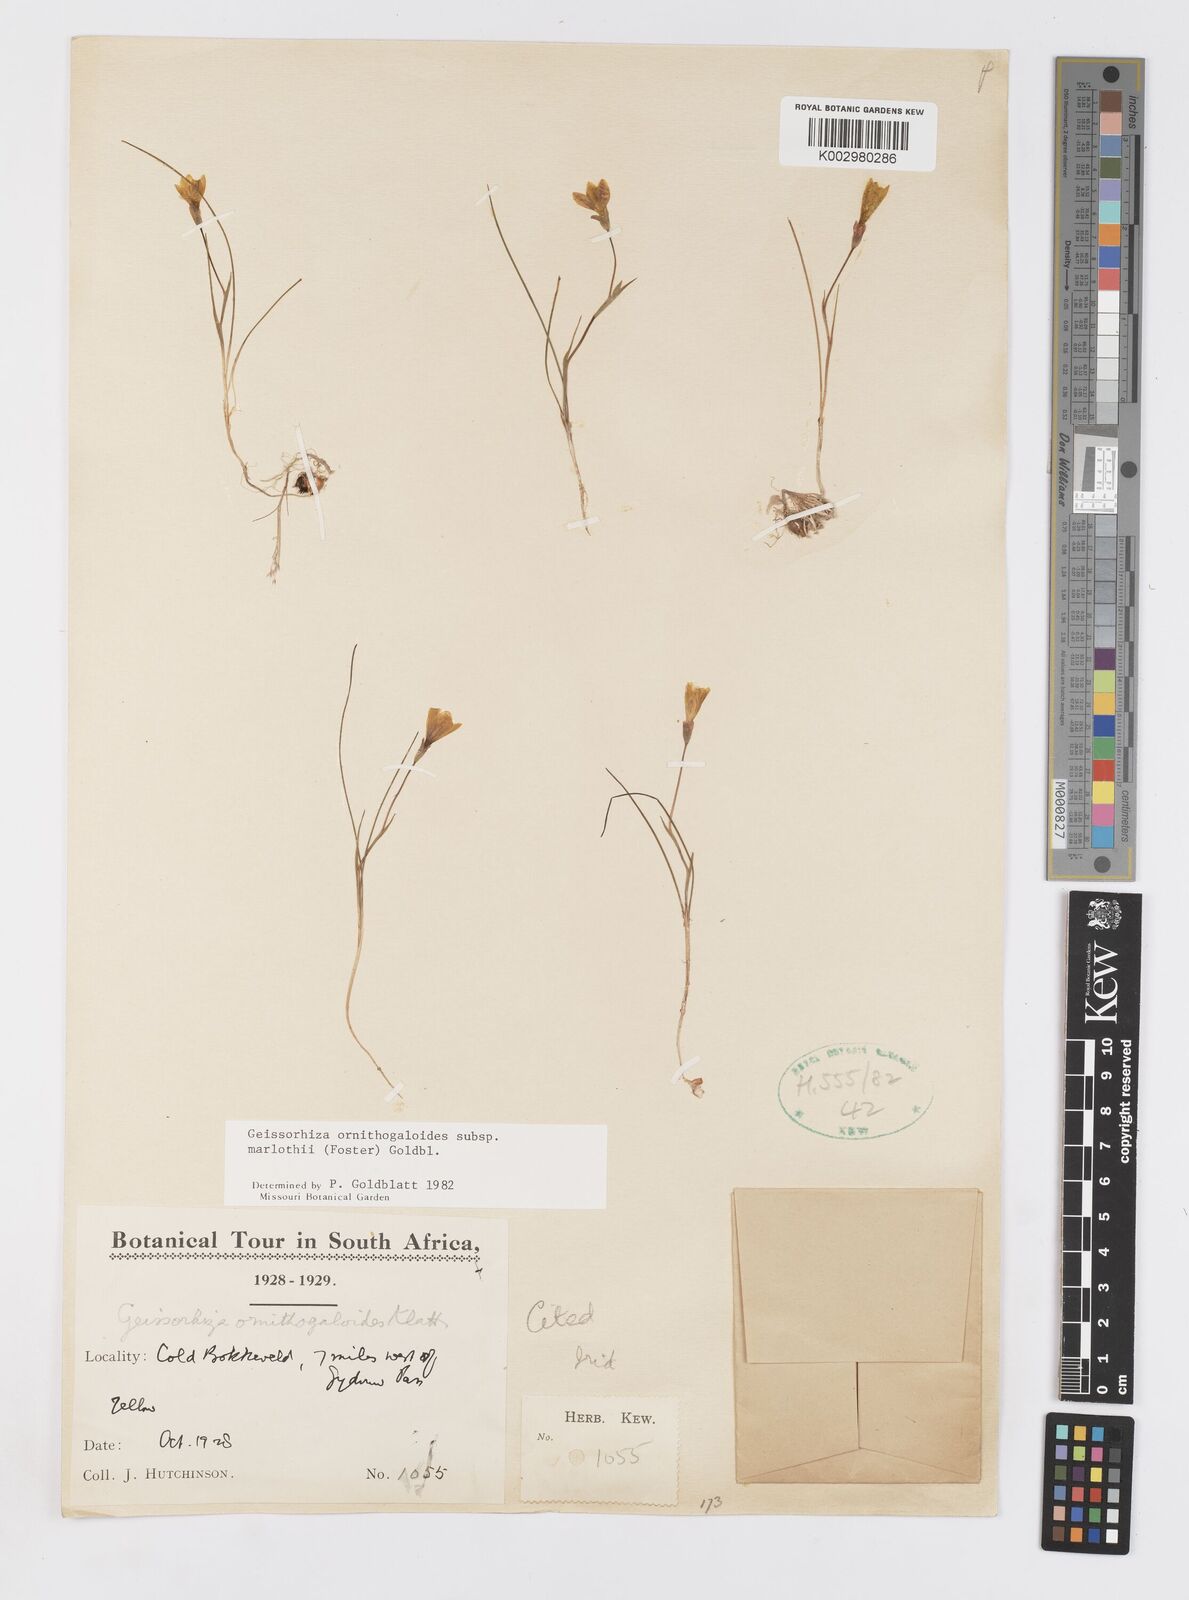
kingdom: Plantae
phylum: Tracheophyta
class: Liliopsida
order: Asparagales
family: Iridaceae
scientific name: Iridaceae
